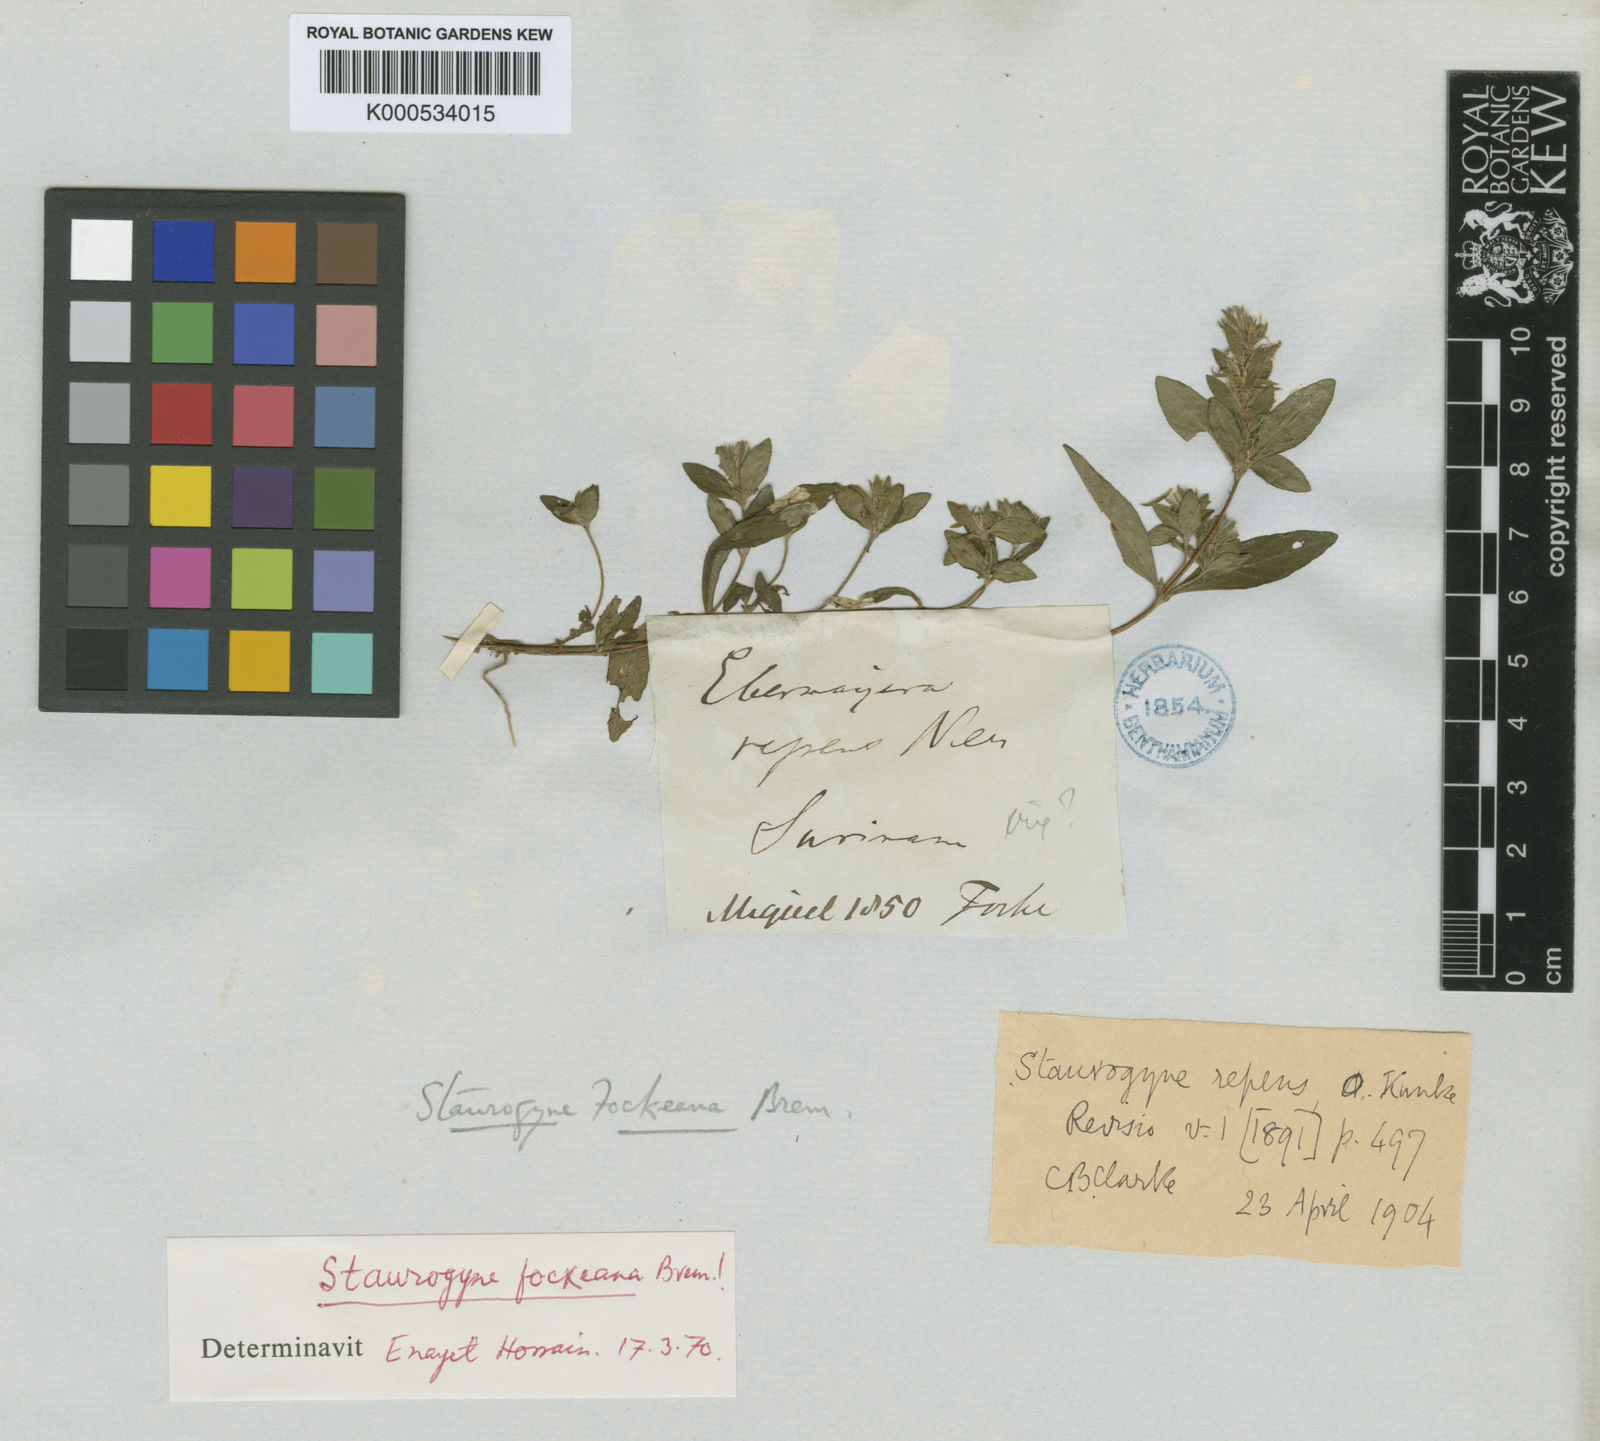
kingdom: Plantae
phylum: Tracheophyta
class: Magnoliopsida
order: Lamiales
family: Acanthaceae
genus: Staurogyne
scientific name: Staurogyne miqueliana
